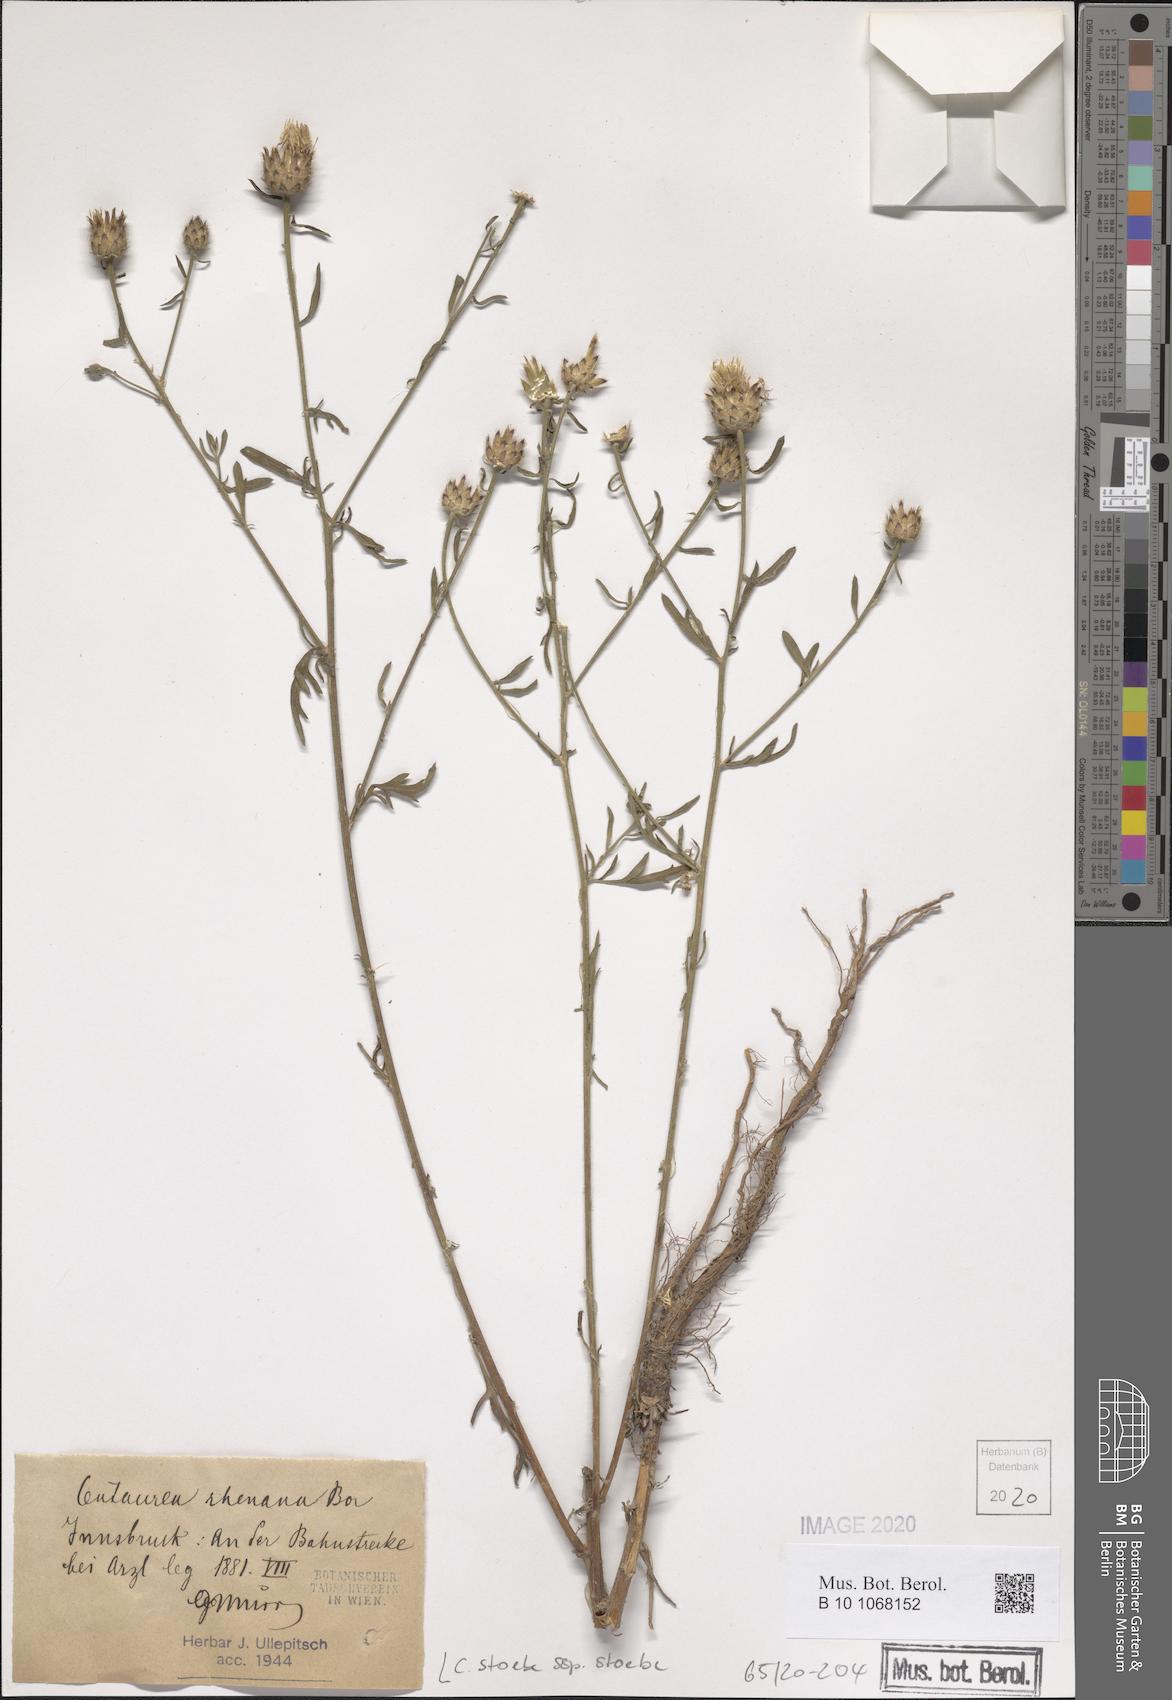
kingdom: Plantae
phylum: Tracheophyta
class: Magnoliopsida
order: Asterales
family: Asteraceae
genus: Centaurea
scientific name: Centaurea stoebe
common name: Spotted knapweed
